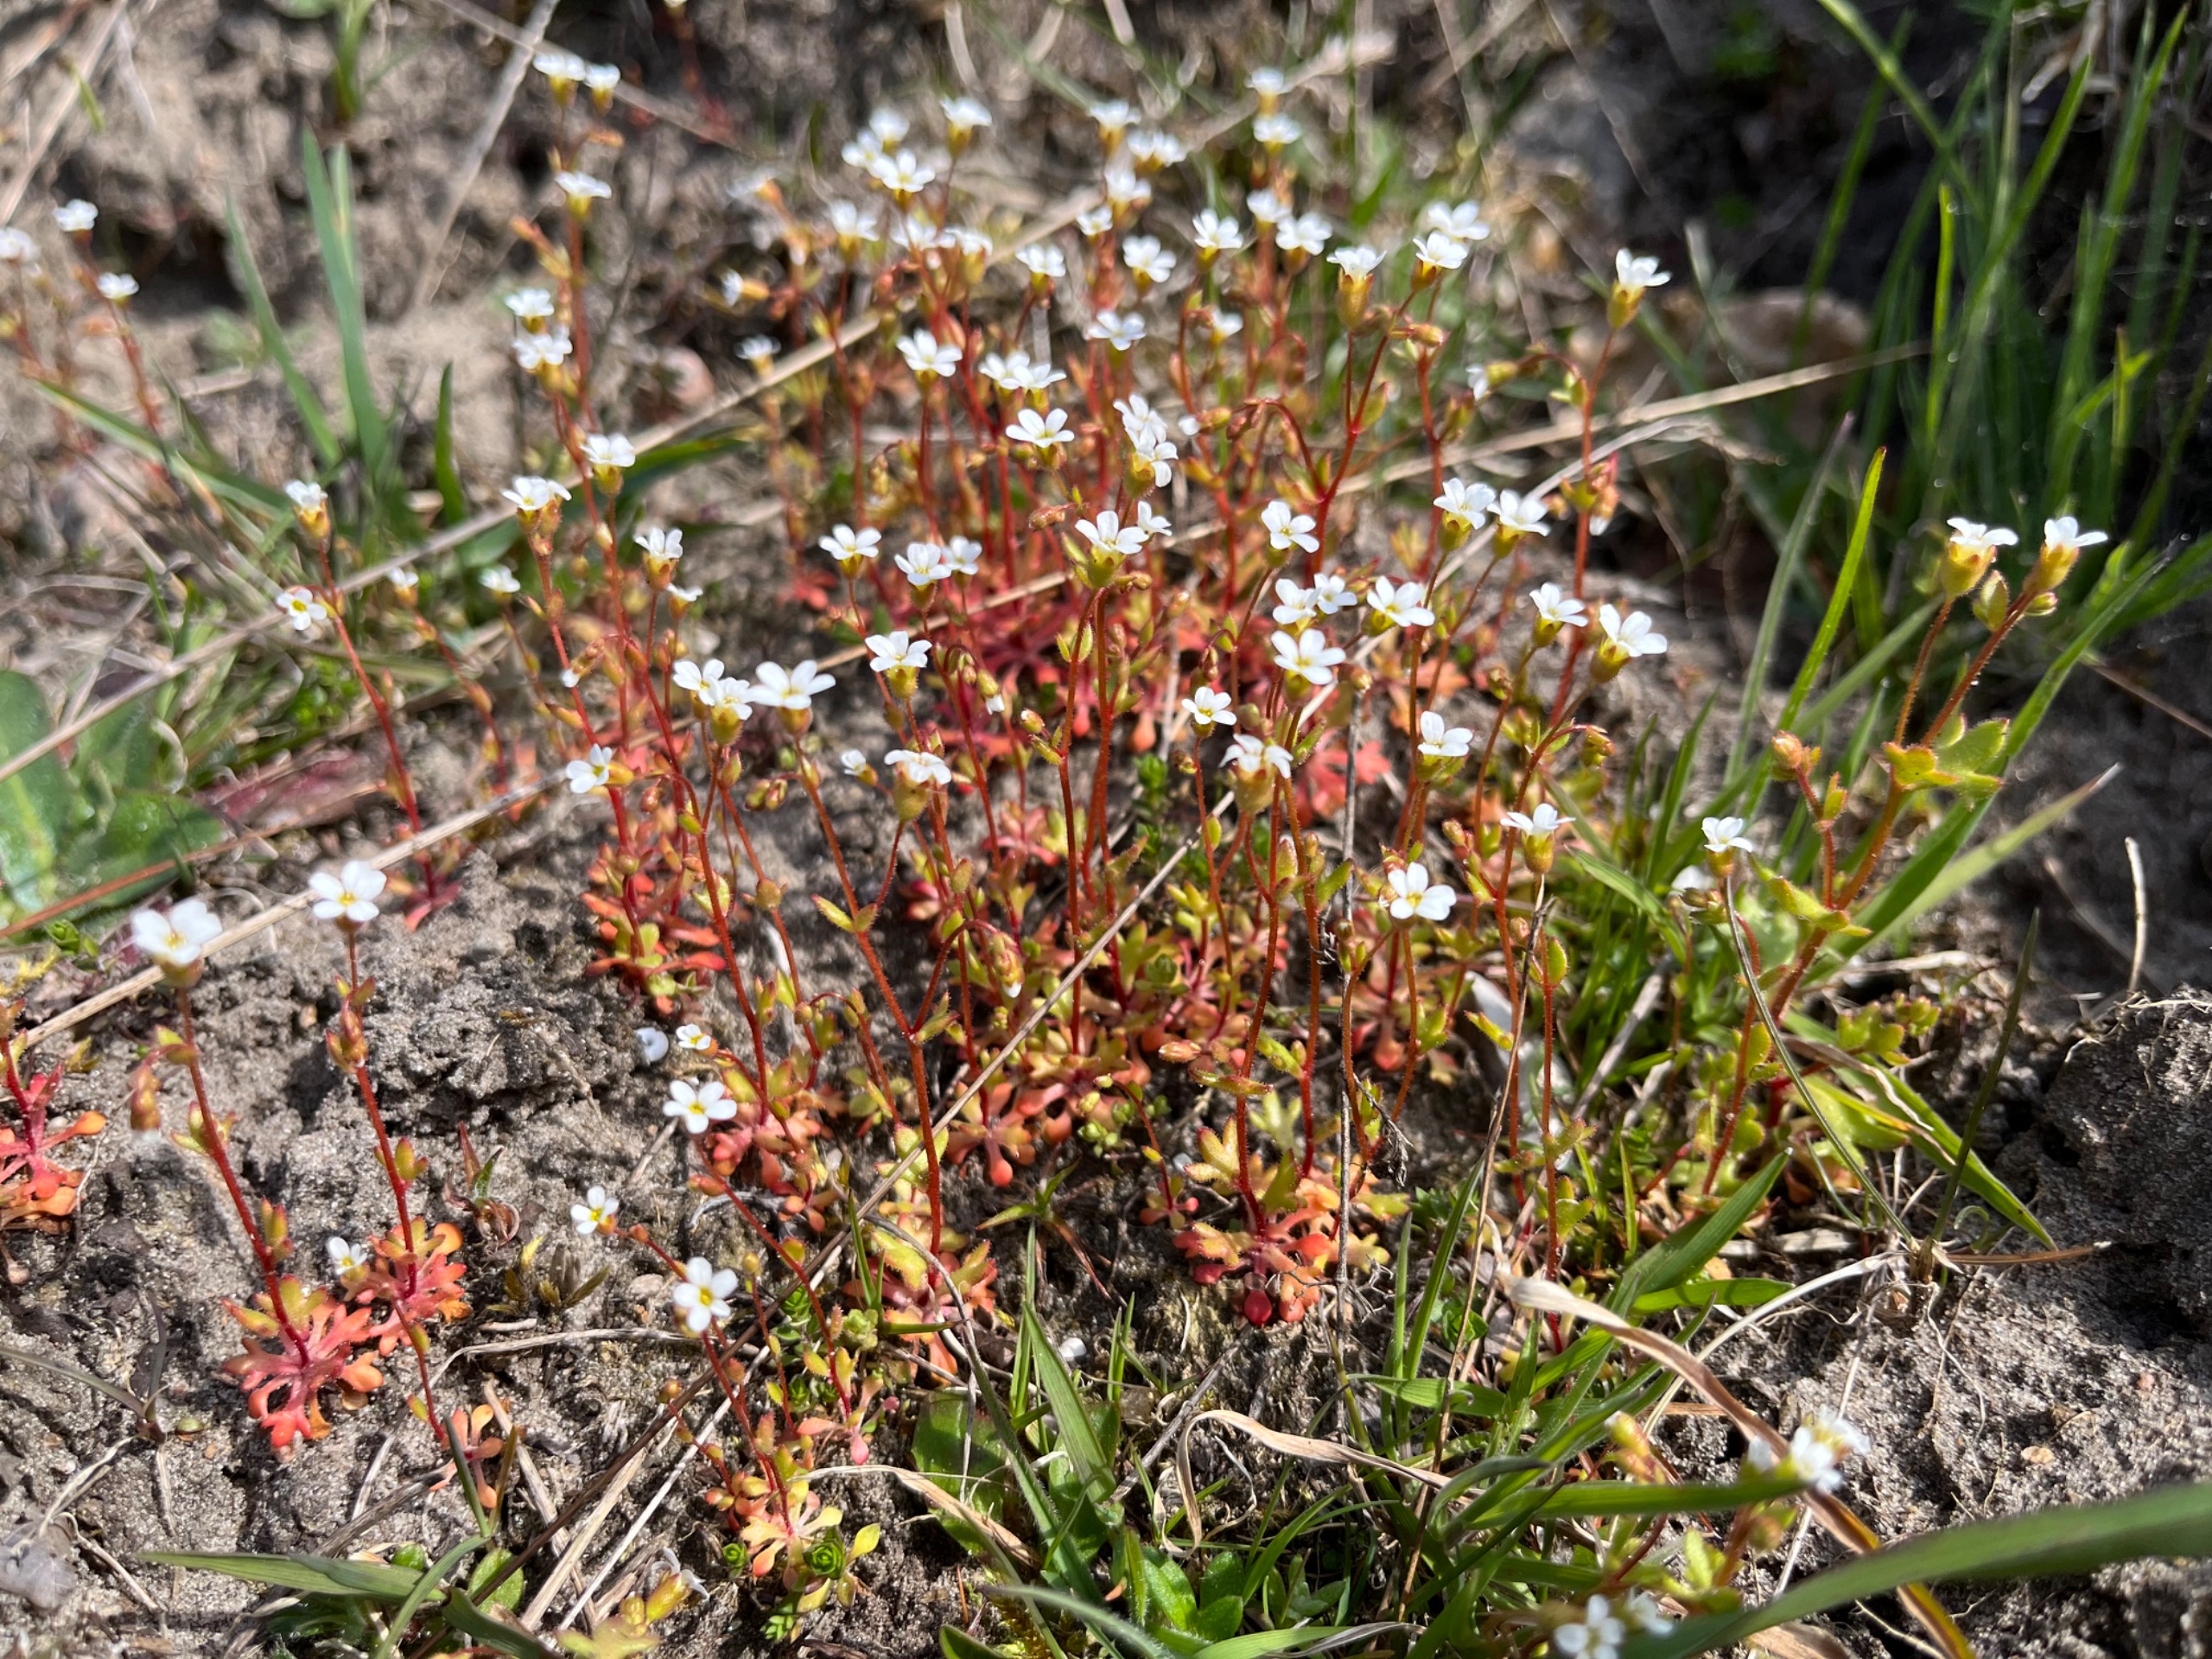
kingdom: Plantae
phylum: Tracheophyta
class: Magnoliopsida
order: Saxifragales
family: Saxifragaceae
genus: Saxifraga
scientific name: Saxifraga tridactylites
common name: Trekløft-stenbræk
